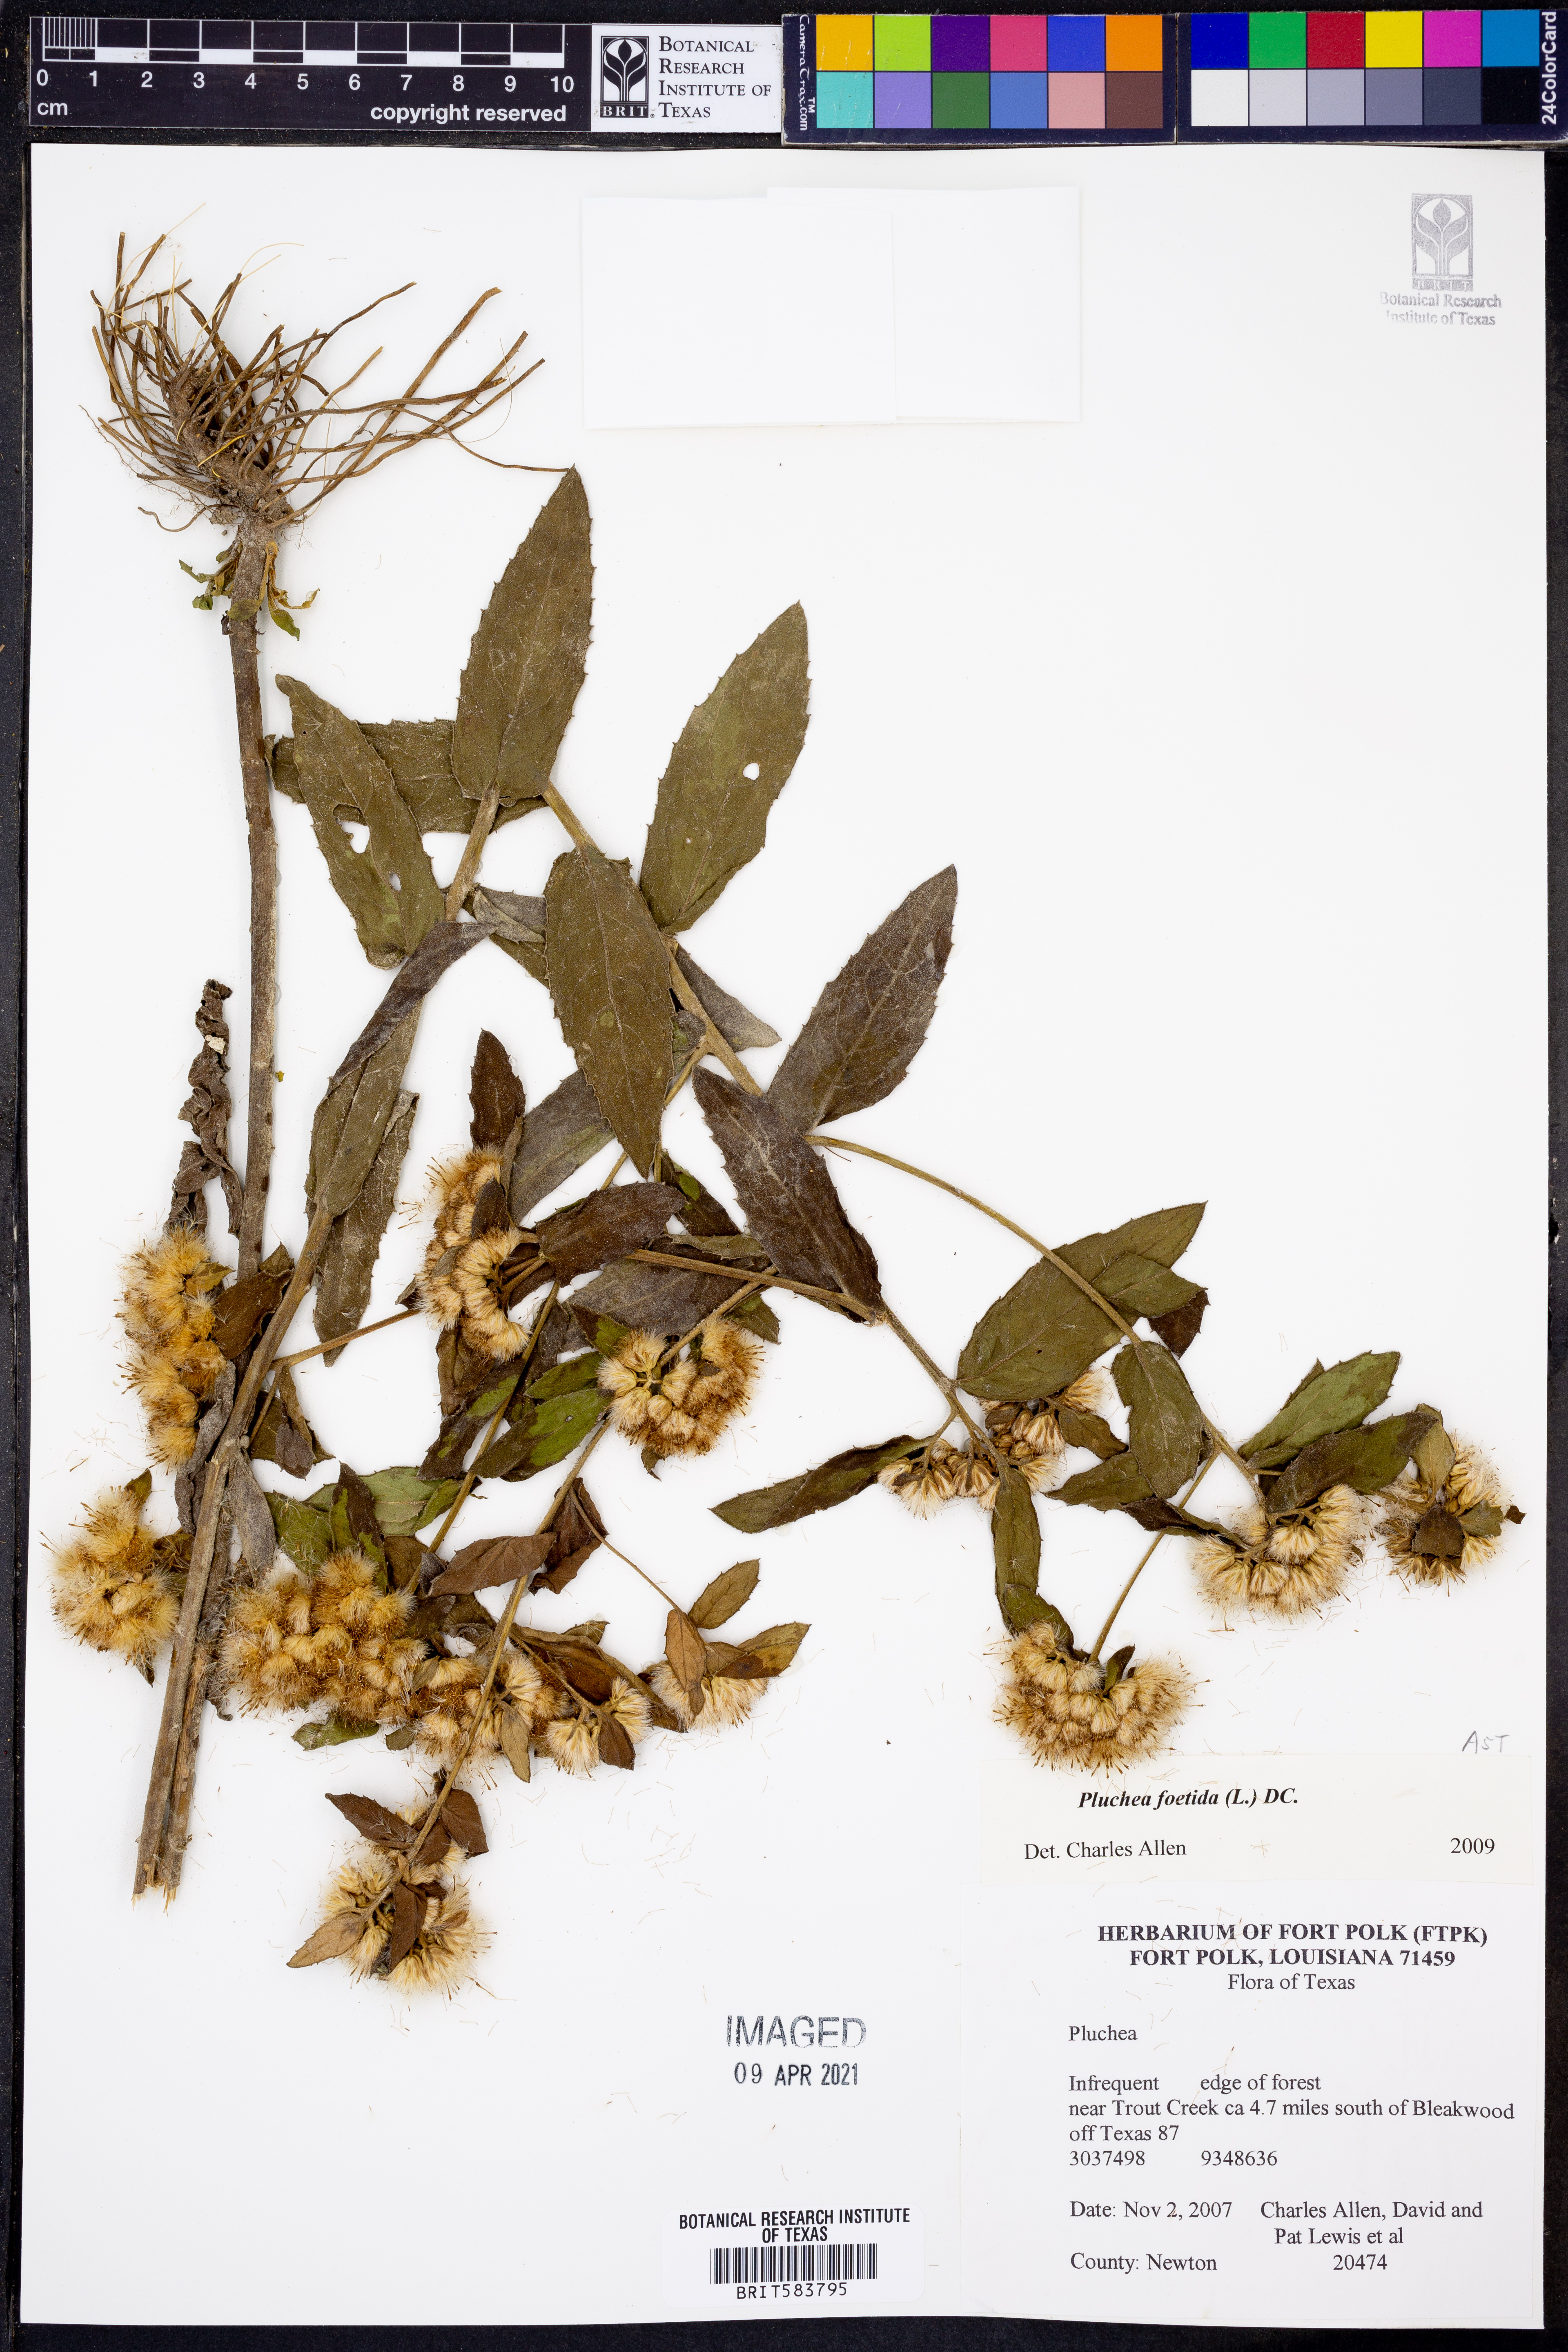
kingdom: Plantae
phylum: Tracheophyta
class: Magnoliopsida
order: Asterales
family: Asteraceae
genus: Pluchea
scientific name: Pluchea foetida
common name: Stinking camphorweed
